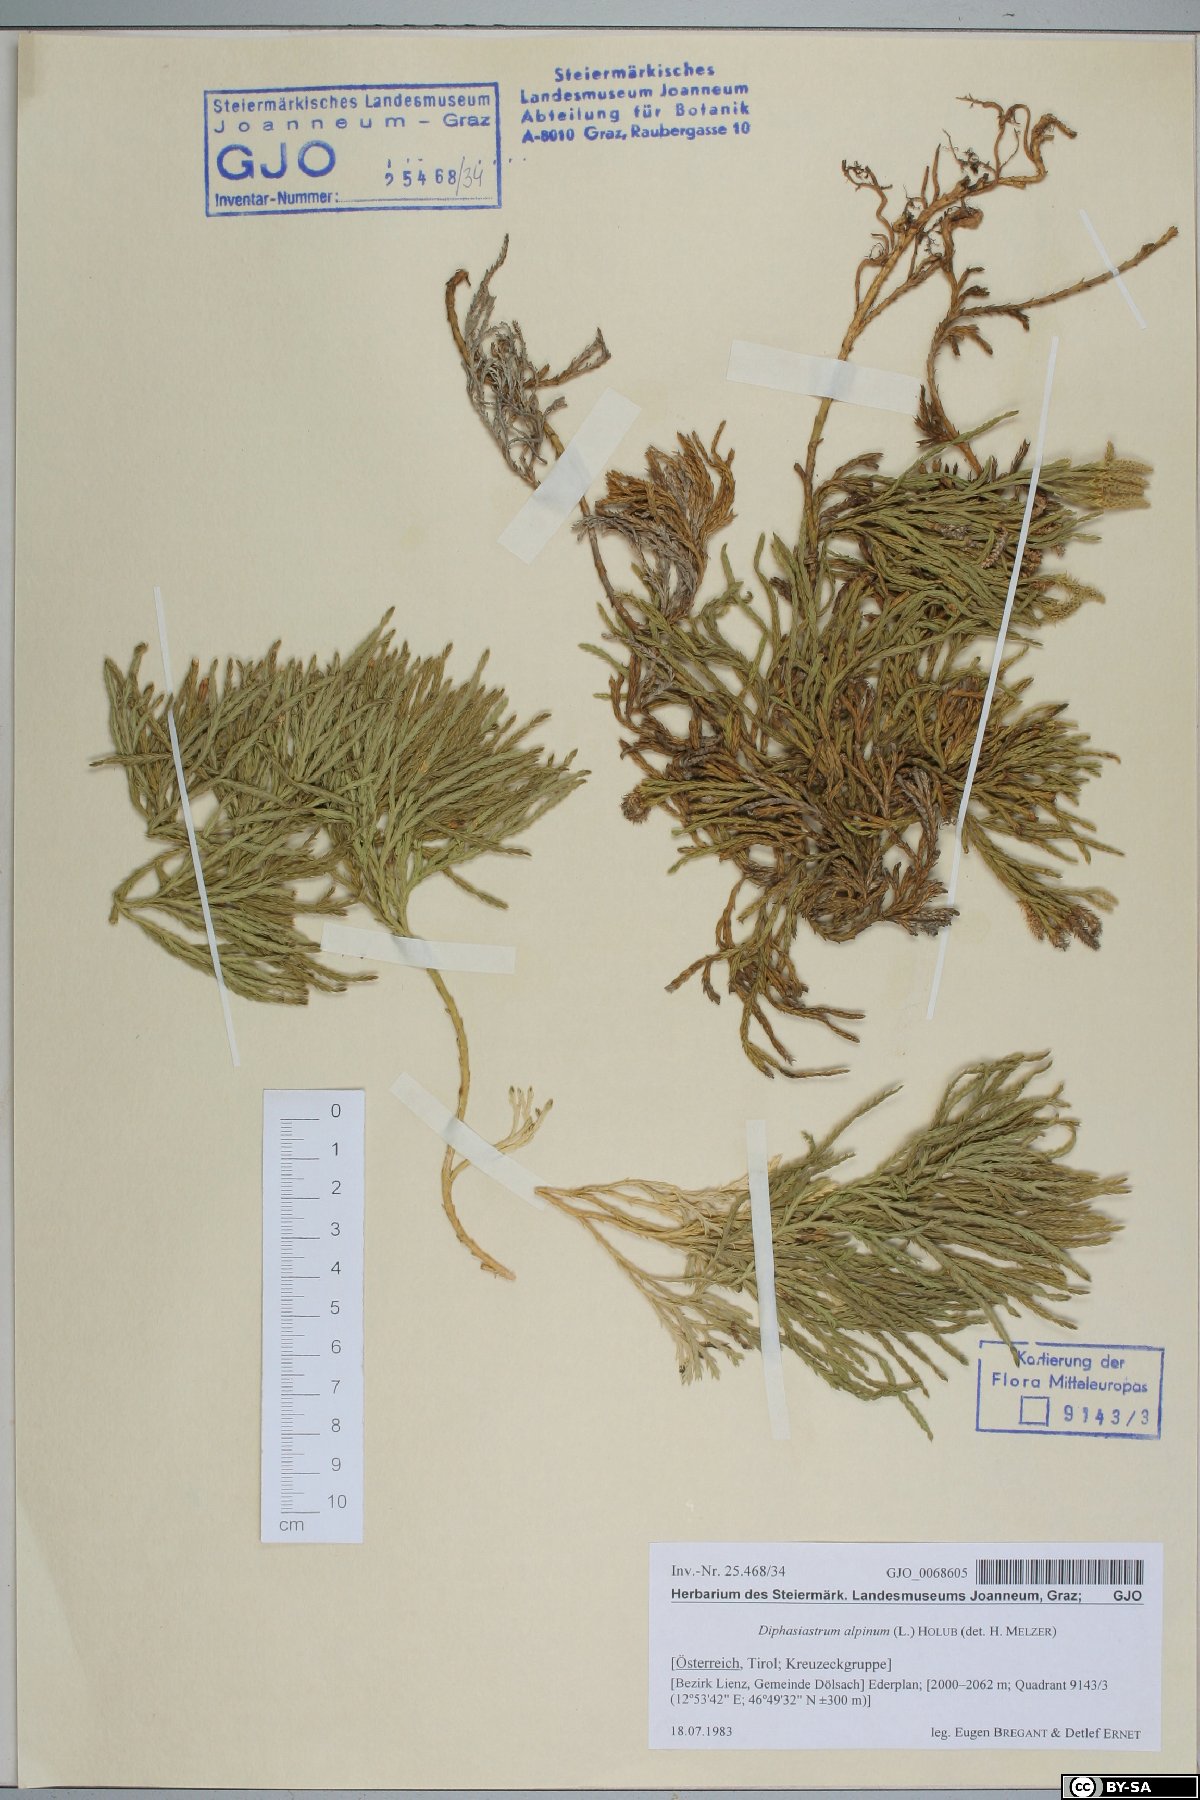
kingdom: Plantae
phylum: Tracheophyta
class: Lycopodiopsida
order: Lycopodiales
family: Lycopodiaceae
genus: Diphasiastrum
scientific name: Diphasiastrum alpinum
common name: Alpine clubmoss
